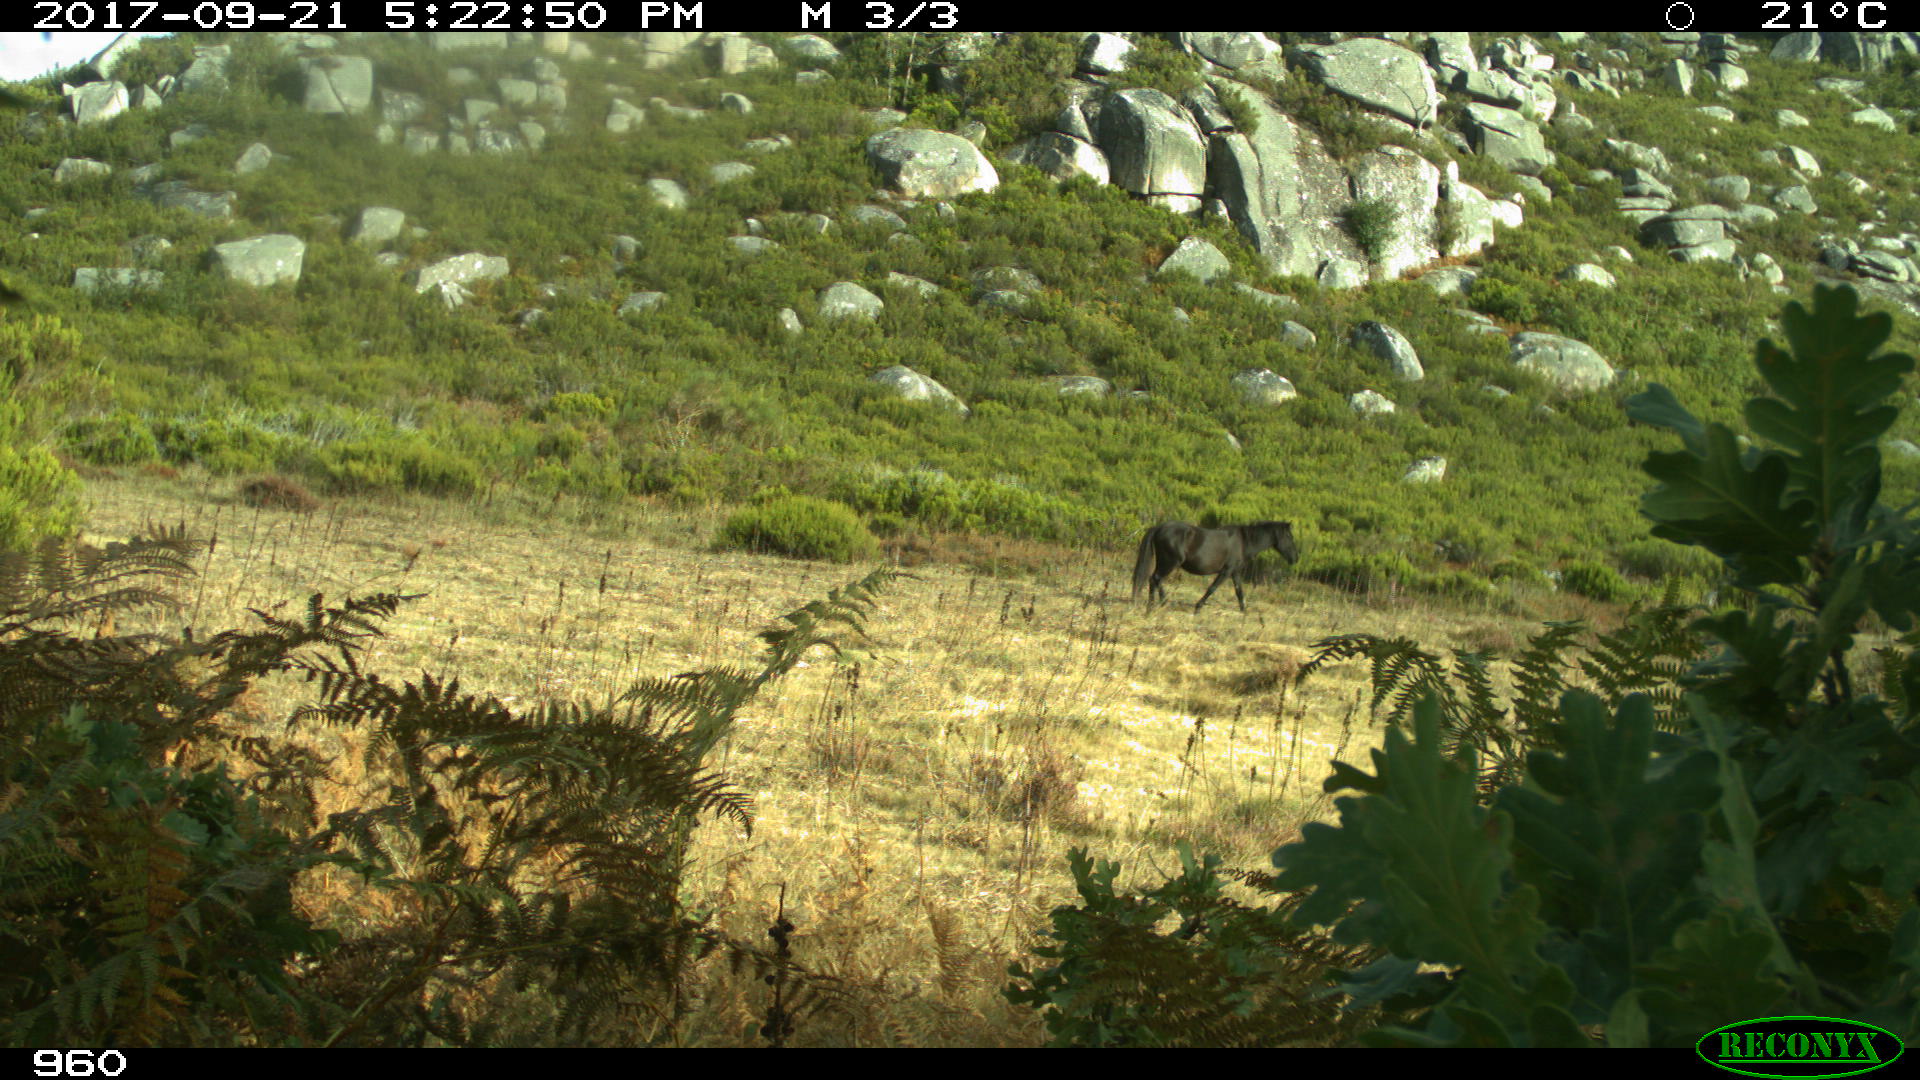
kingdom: Animalia
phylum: Chordata
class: Mammalia
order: Perissodactyla
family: Equidae
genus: Equus
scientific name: Equus caballus
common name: Horse
